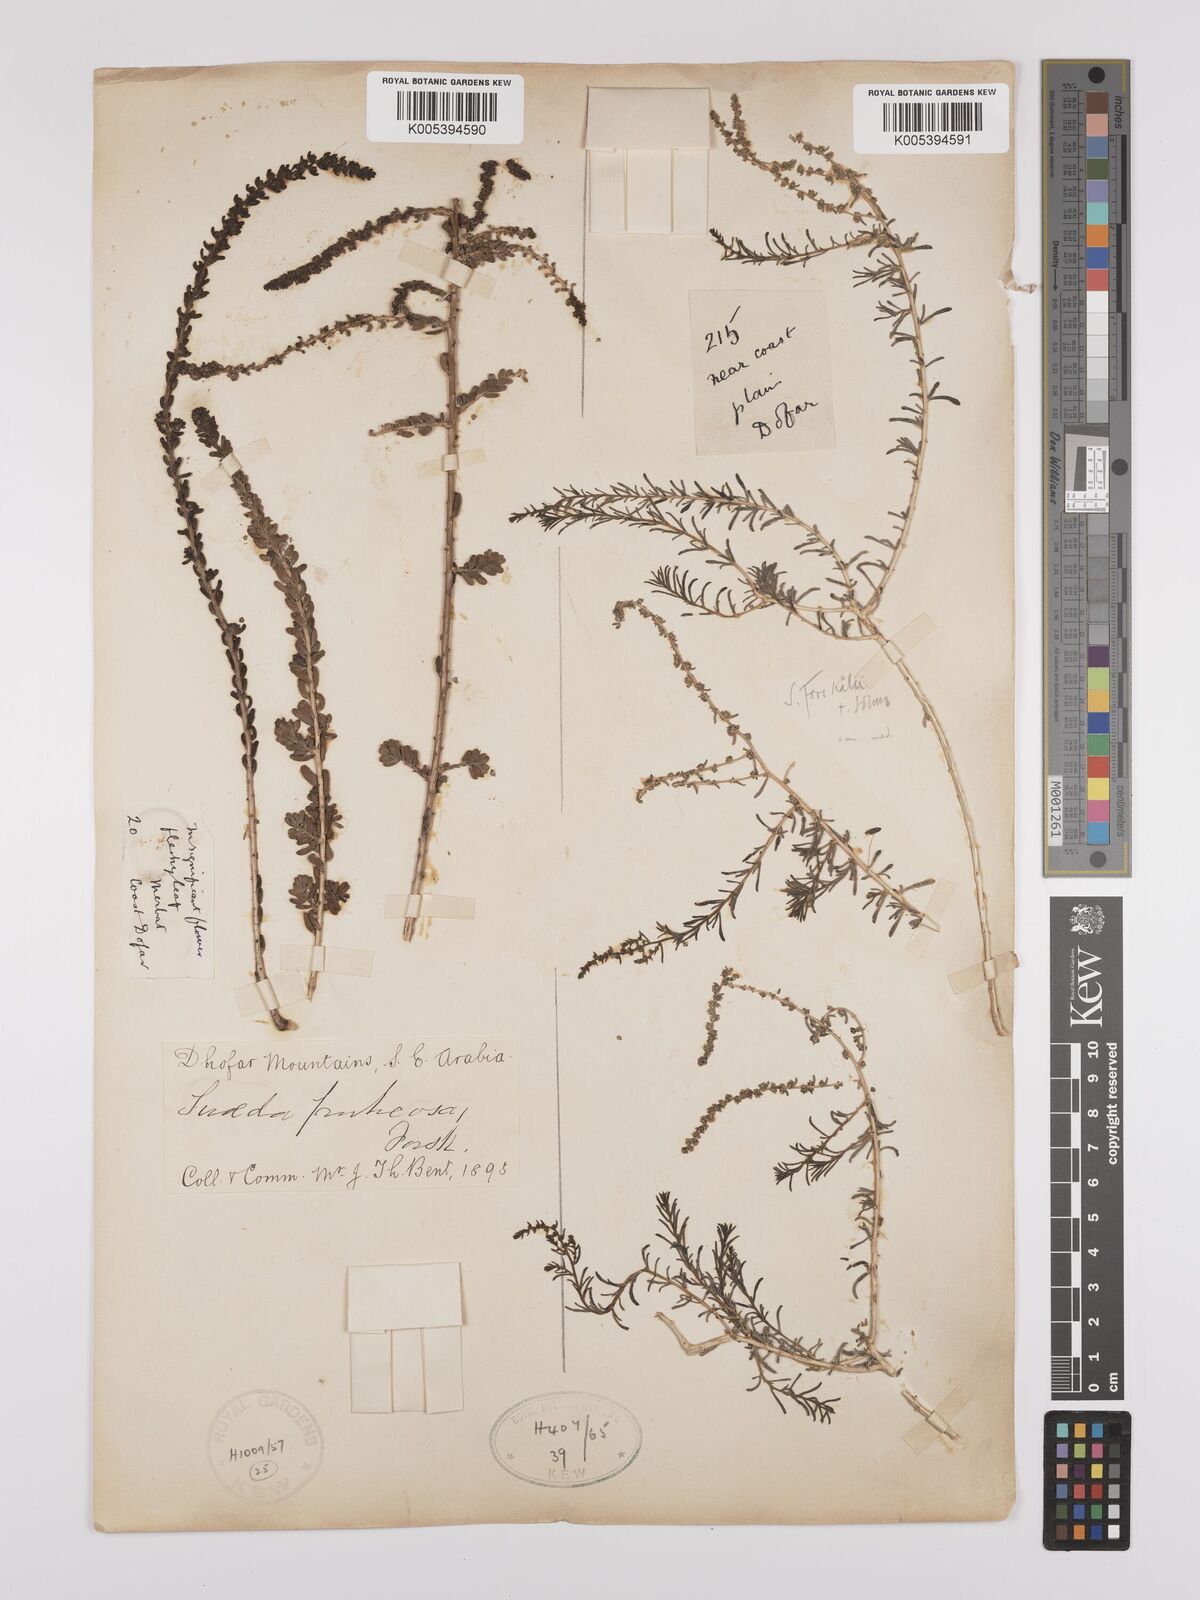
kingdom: Plantae
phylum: Tracheophyta
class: Magnoliopsida
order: Caryophyllales
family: Amaranthaceae
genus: Suaeda
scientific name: Suaeda
